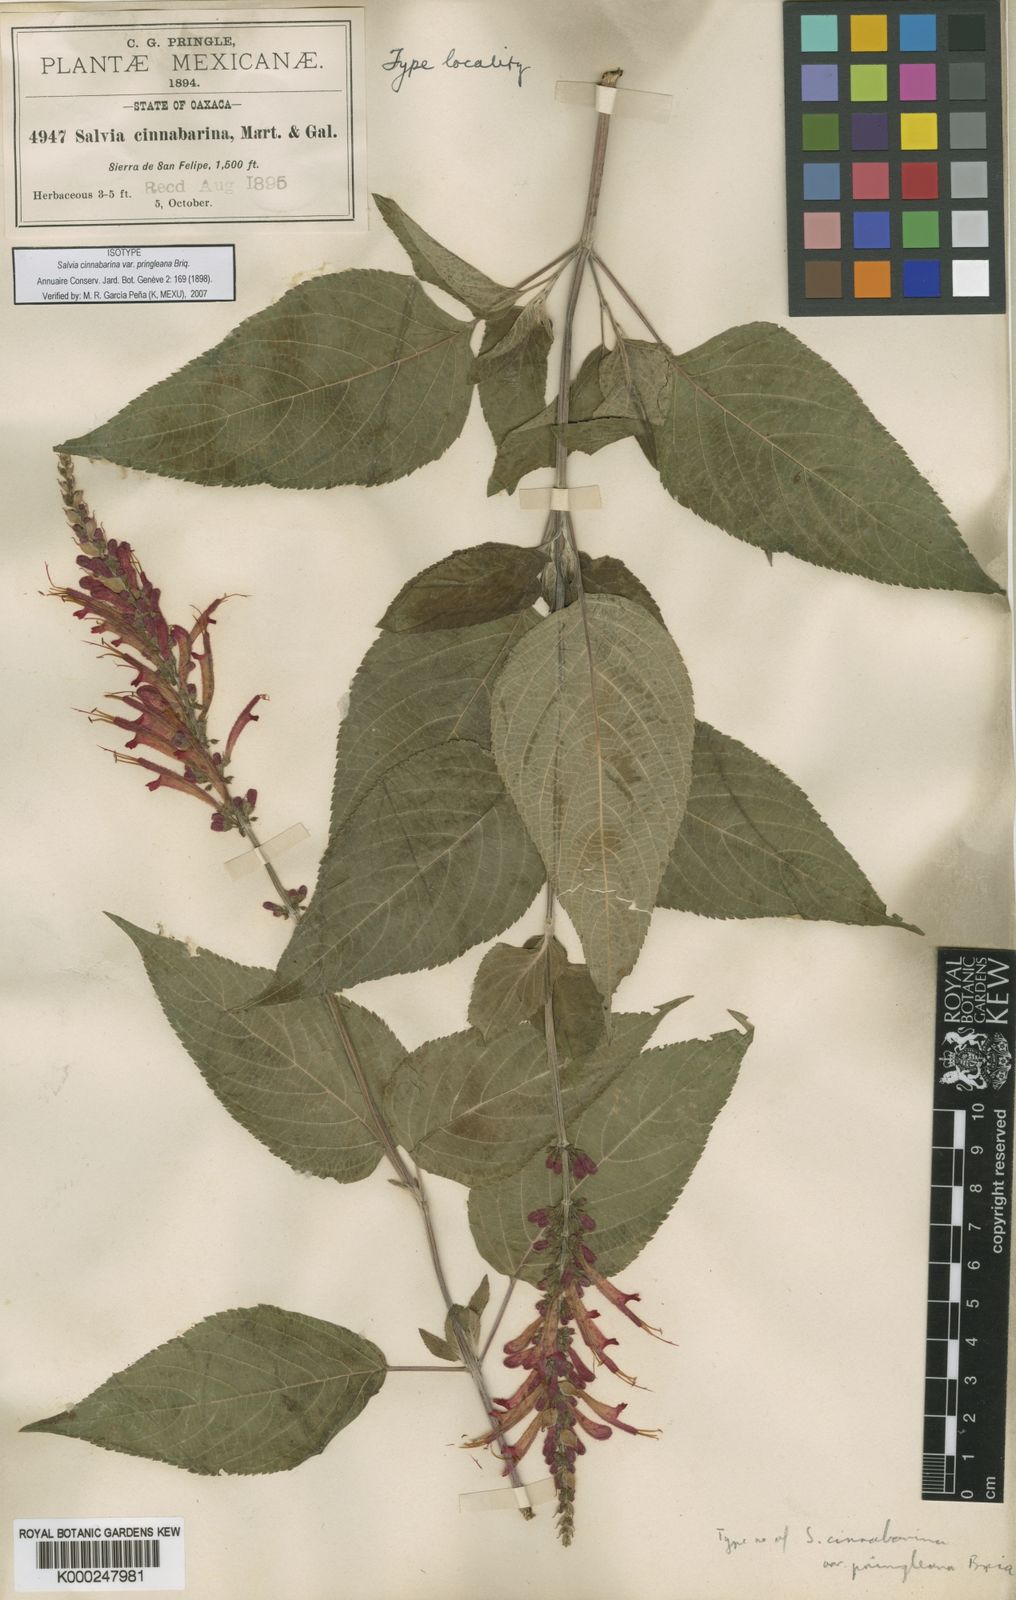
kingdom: Plantae
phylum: Tracheophyta
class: Magnoliopsida
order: Lamiales
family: Lamiaceae
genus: Salvia
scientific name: Salvia
